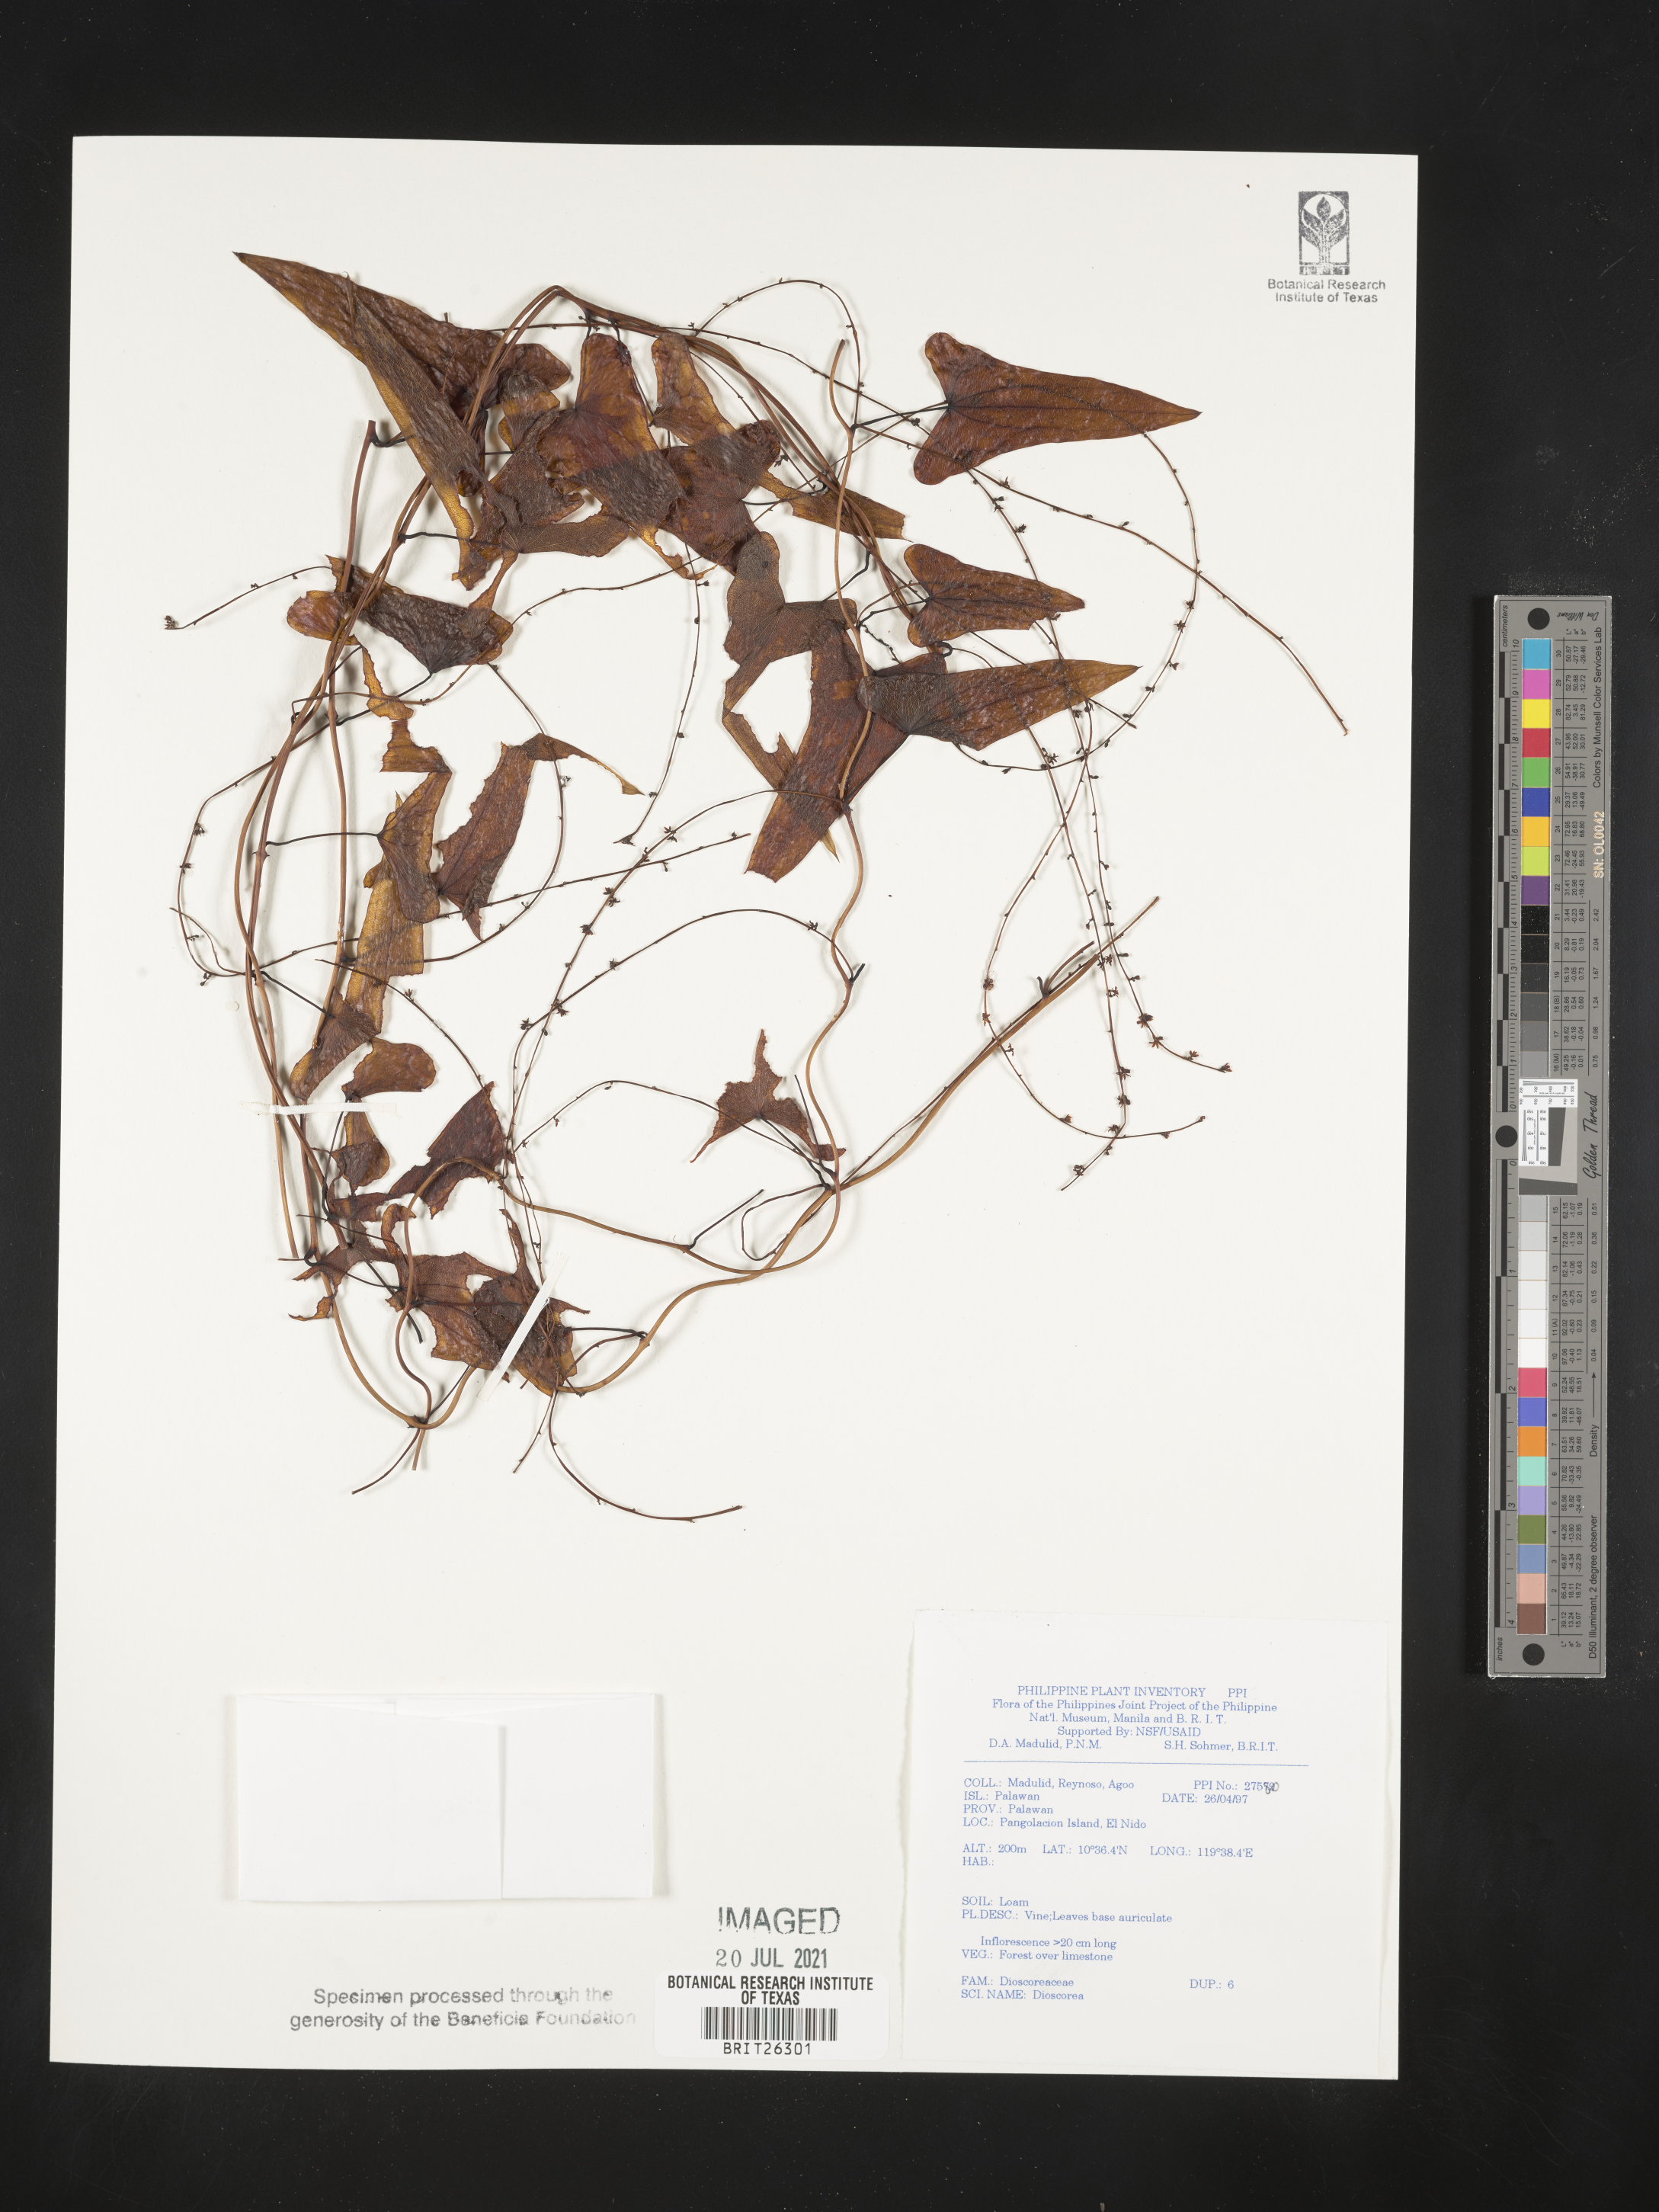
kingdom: Plantae
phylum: Tracheophyta
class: Liliopsida
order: Dioscoreales
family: Dioscoreaceae
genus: Dioscorea
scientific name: Dioscorea
